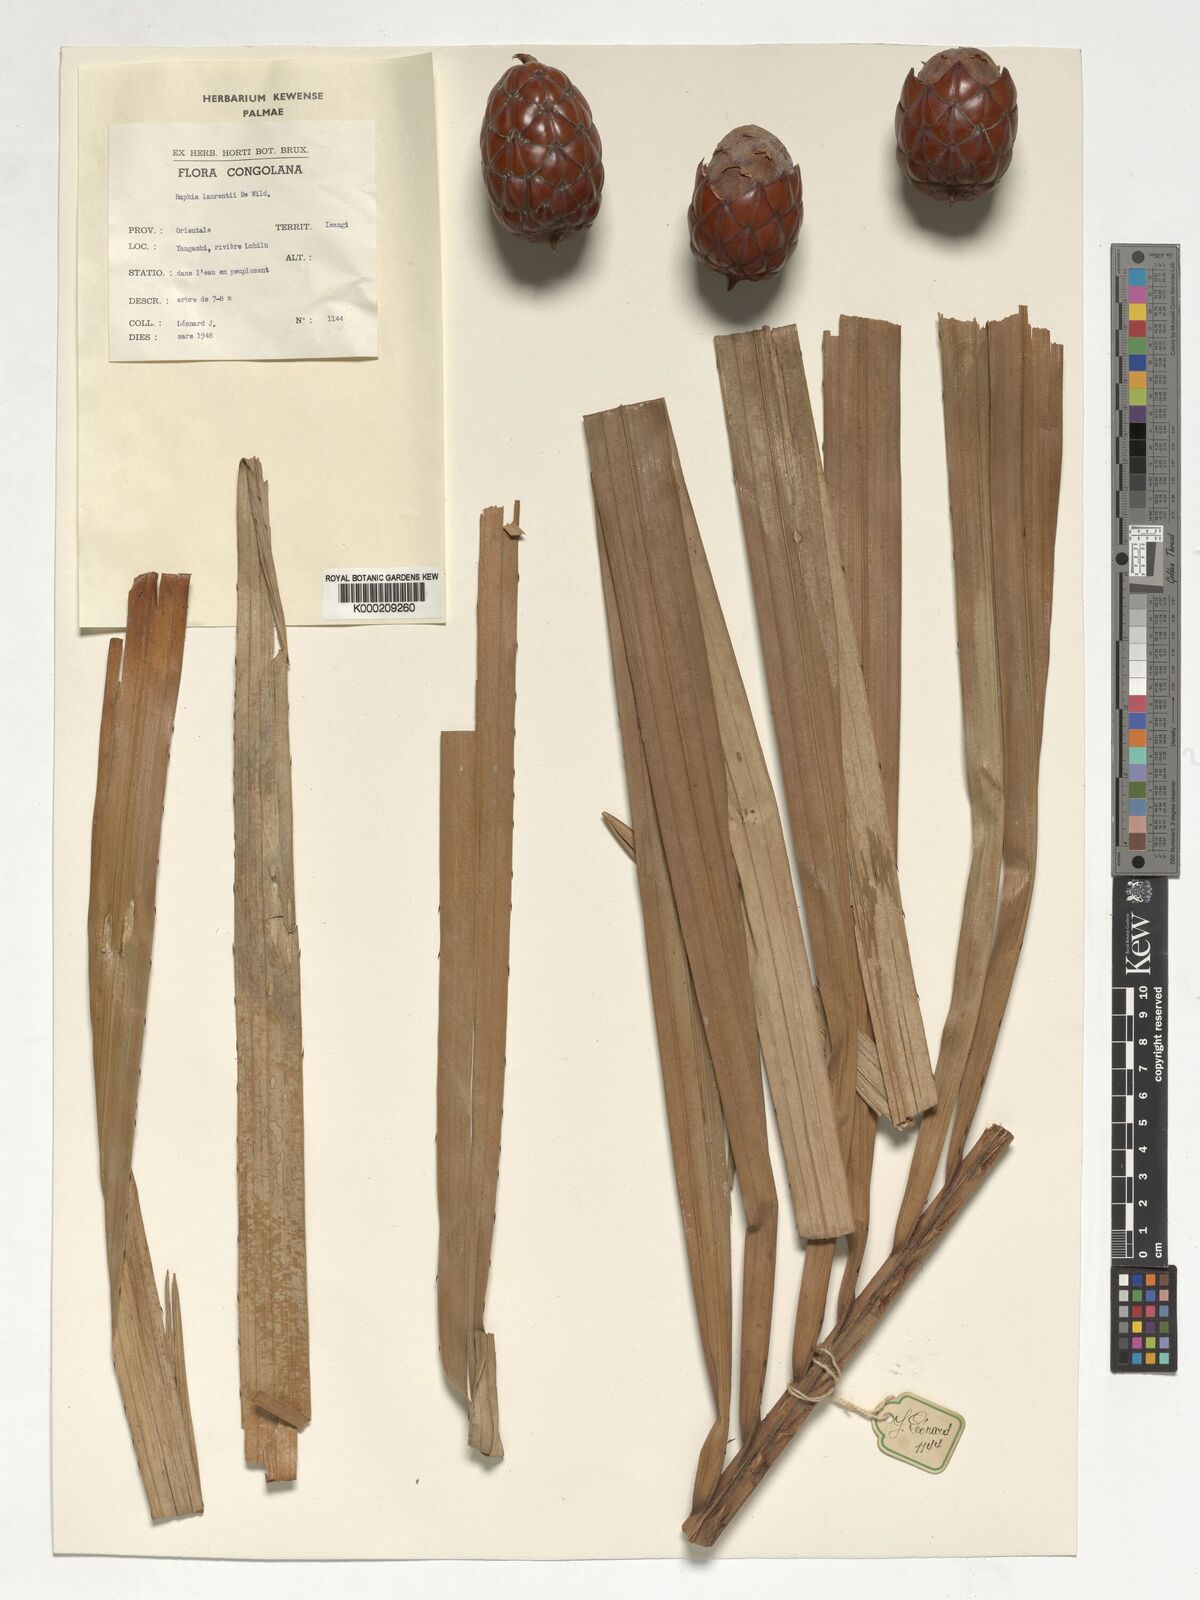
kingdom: Plantae
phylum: Tracheophyta
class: Liliopsida
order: Arecales
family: Arecaceae
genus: Raphia
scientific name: Raphia laurentii
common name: Raphia palm
